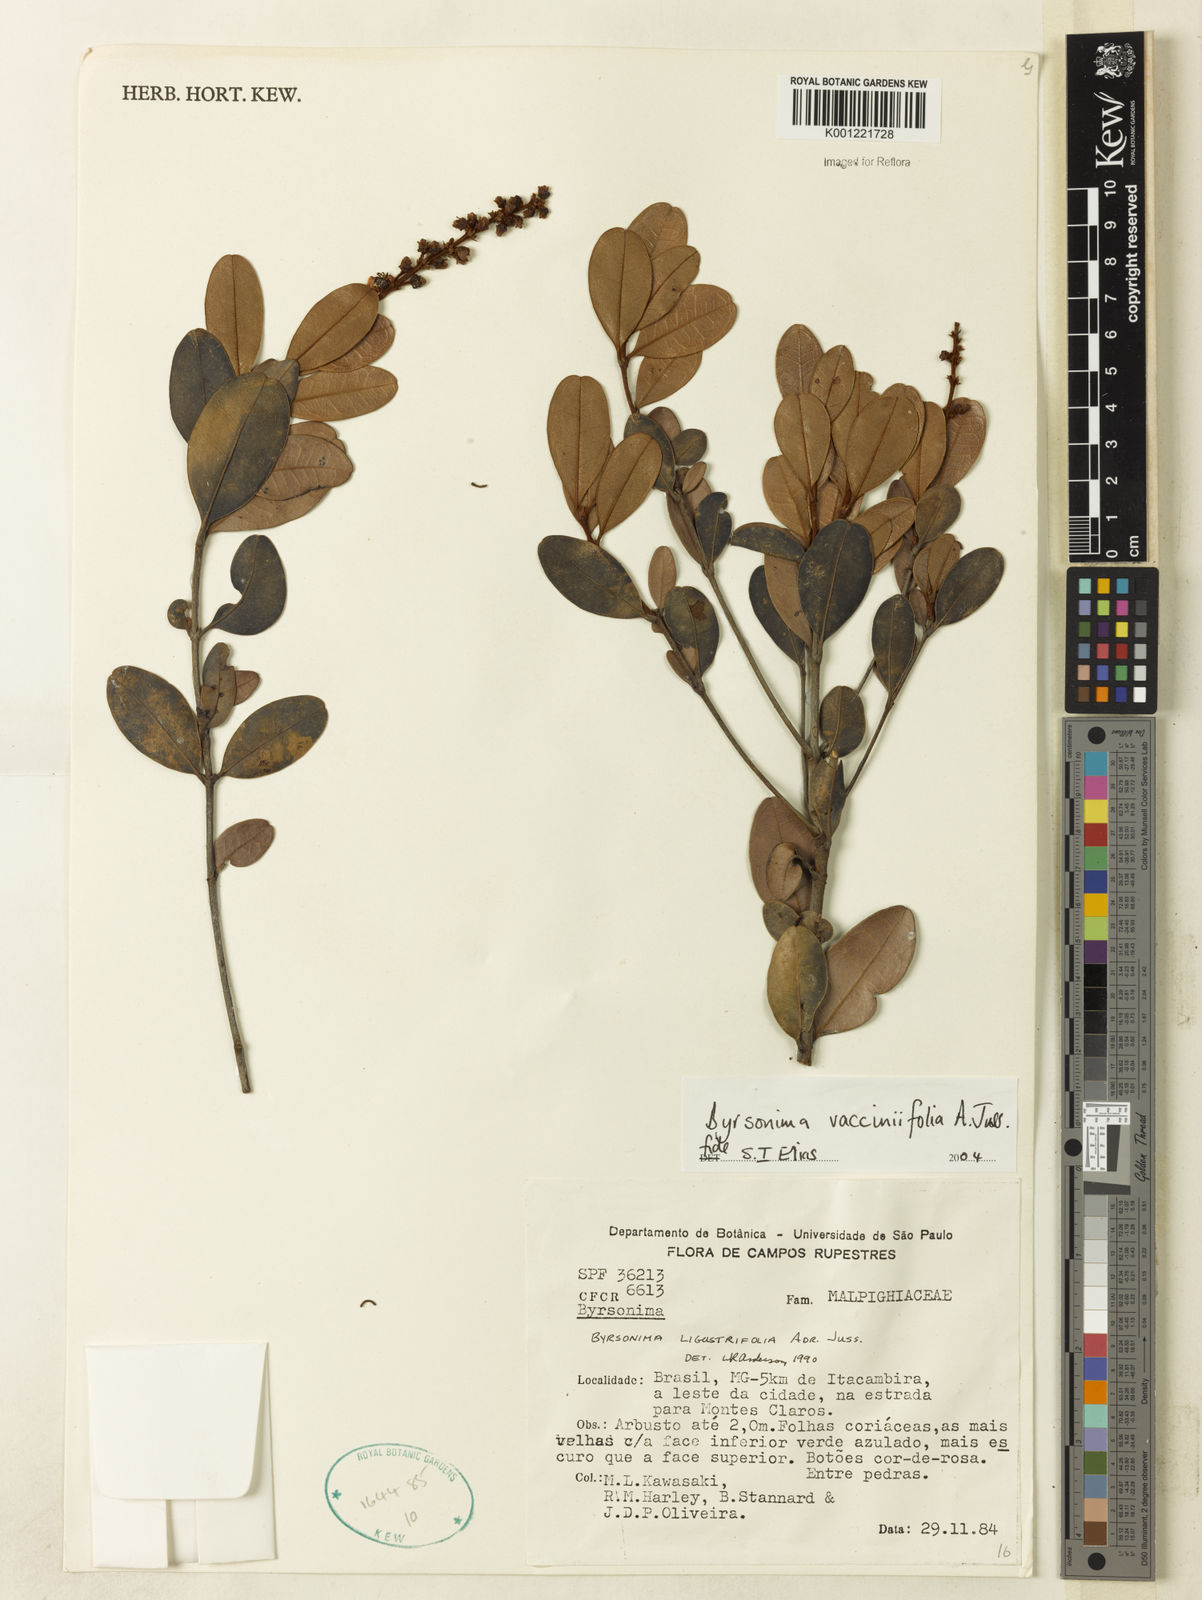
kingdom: Plantae
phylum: Tracheophyta
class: Magnoliopsida
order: Malpighiales
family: Malpighiaceae
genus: Byrsonima
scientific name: Byrsonima vacciniifolia
